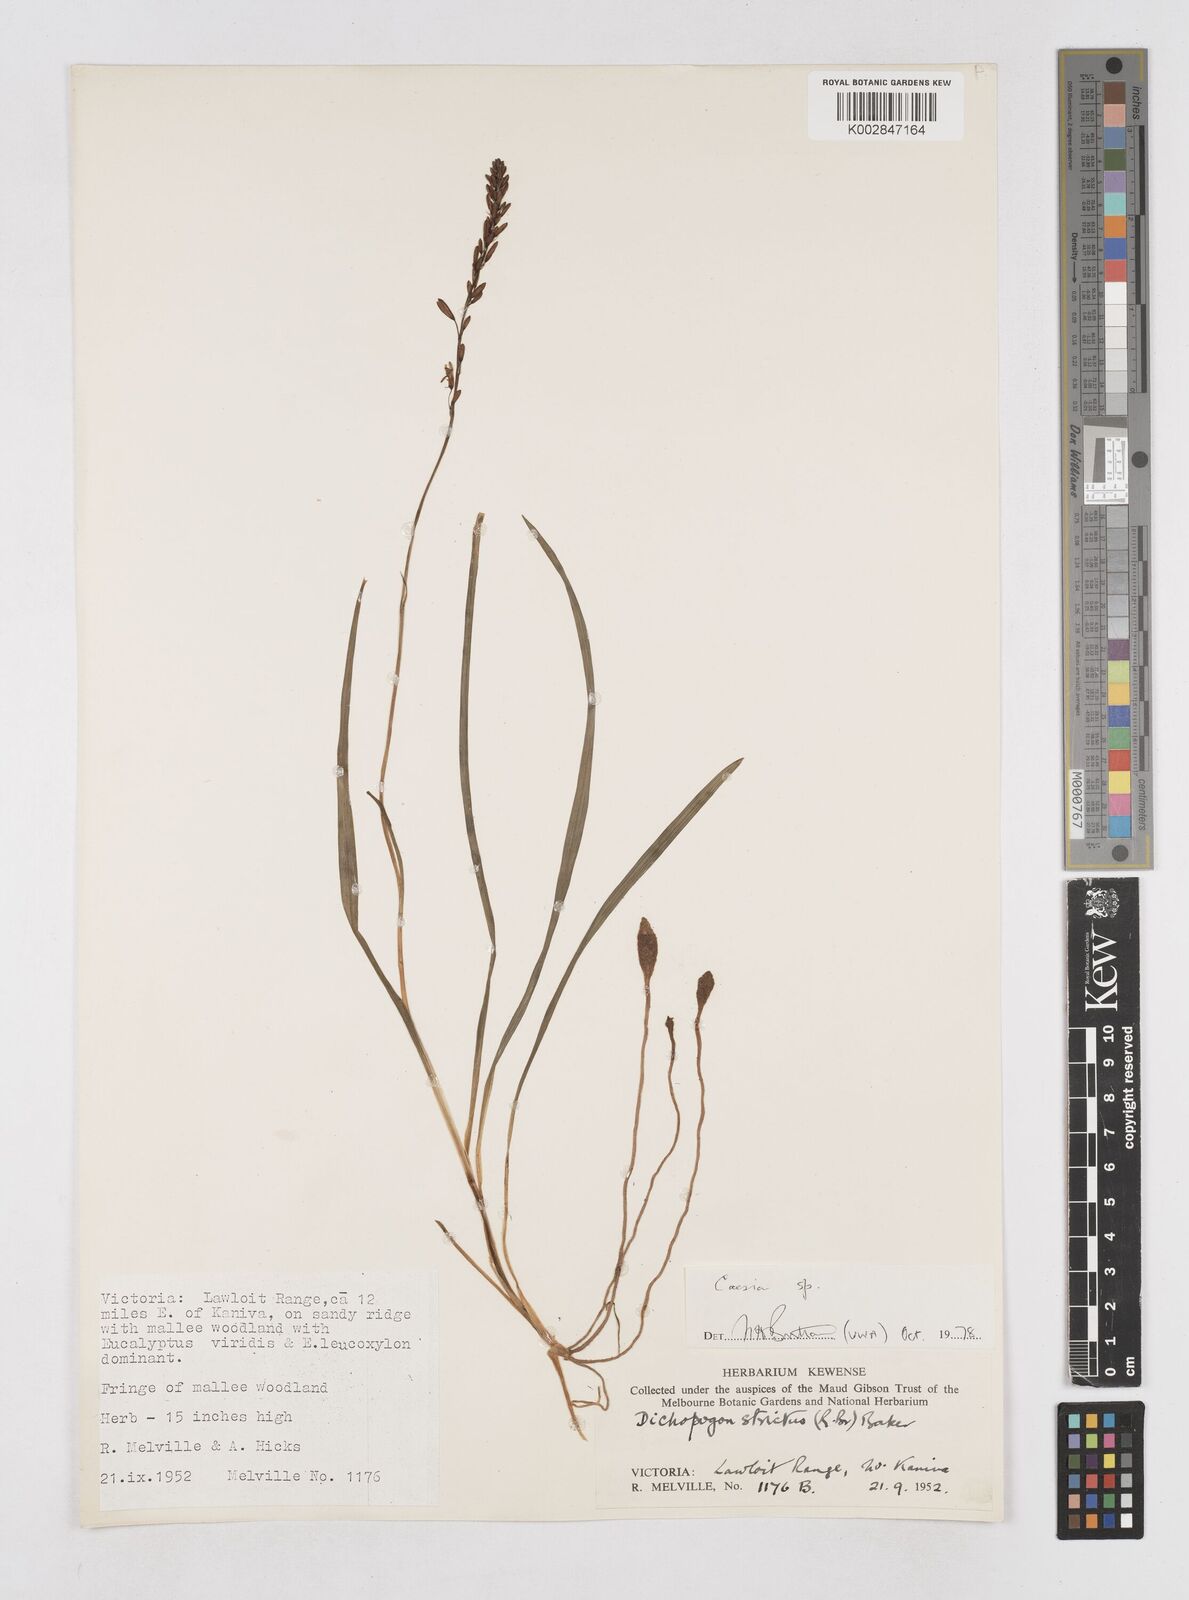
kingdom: Plantae
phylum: Tracheophyta
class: Liliopsida
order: Asparagales
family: Asphodelaceae
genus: Caesia
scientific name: Caesia
